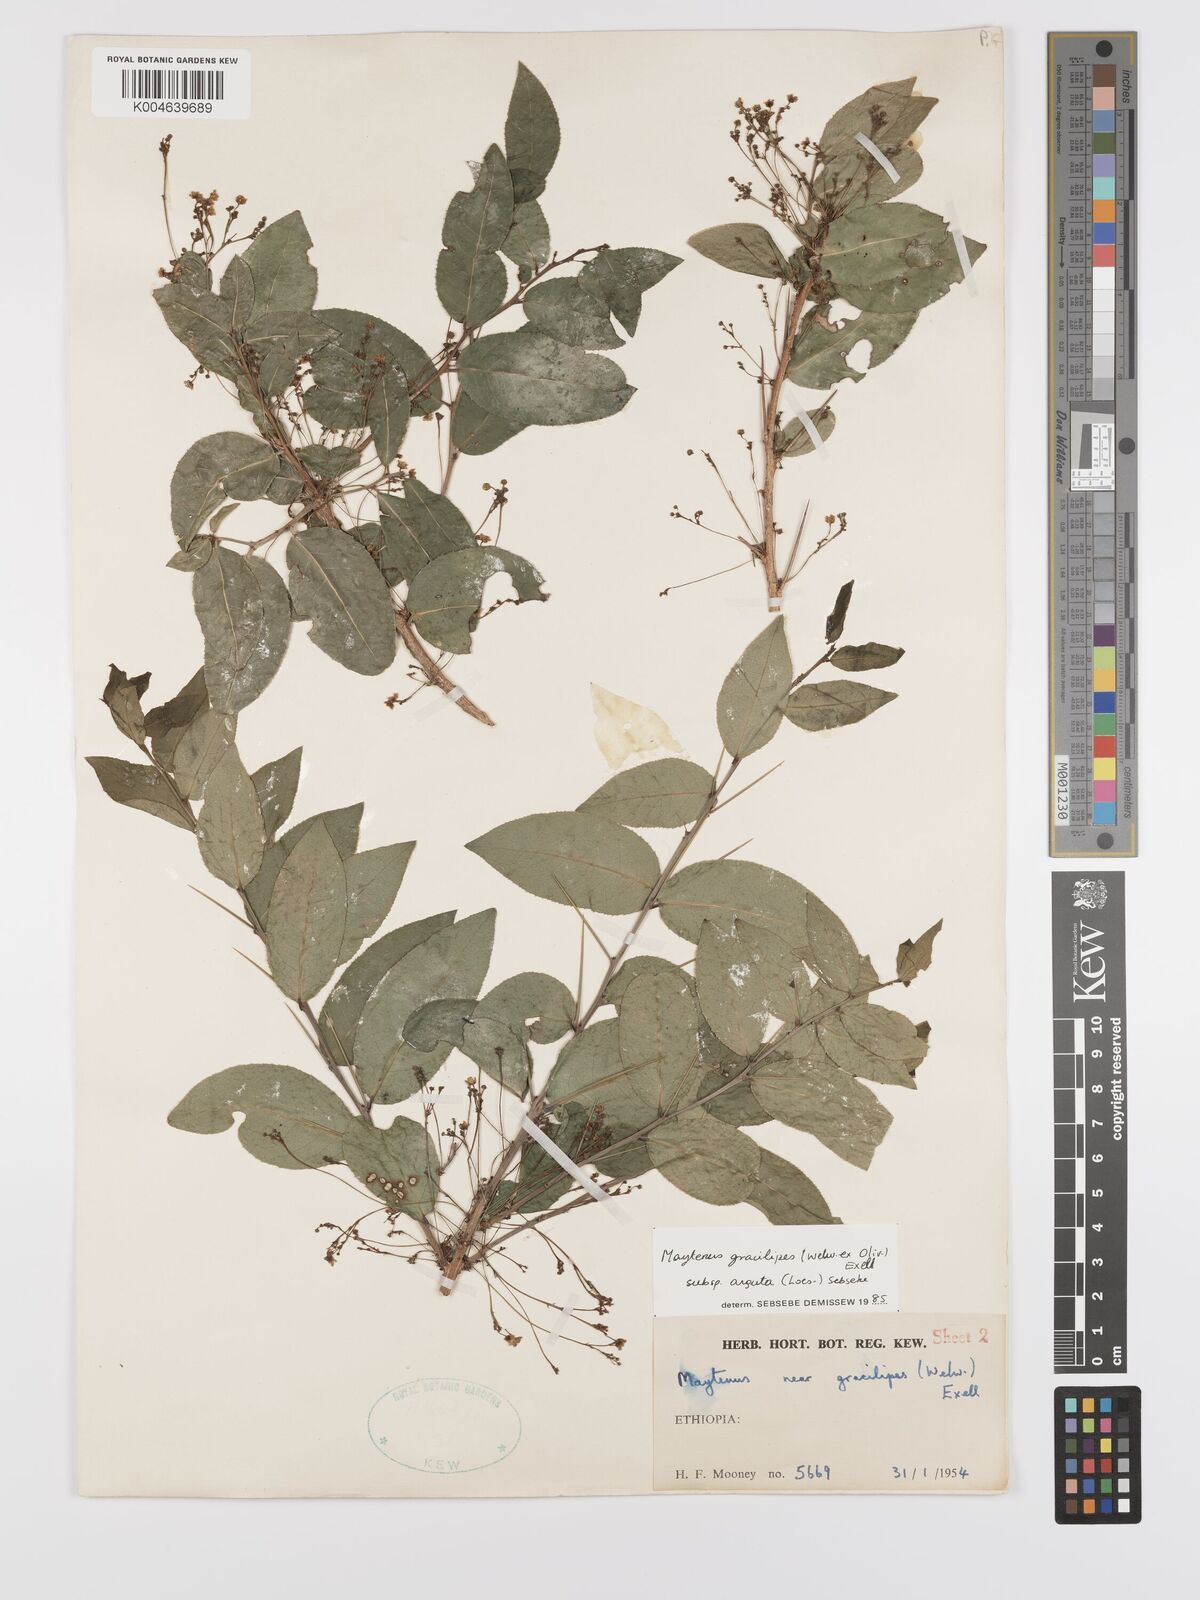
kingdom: Plantae
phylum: Tracheophyta
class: Magnoliopsida
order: Celastrales
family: Celastraceae
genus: Gymnosporia
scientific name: Gymnosporia gracilipes
